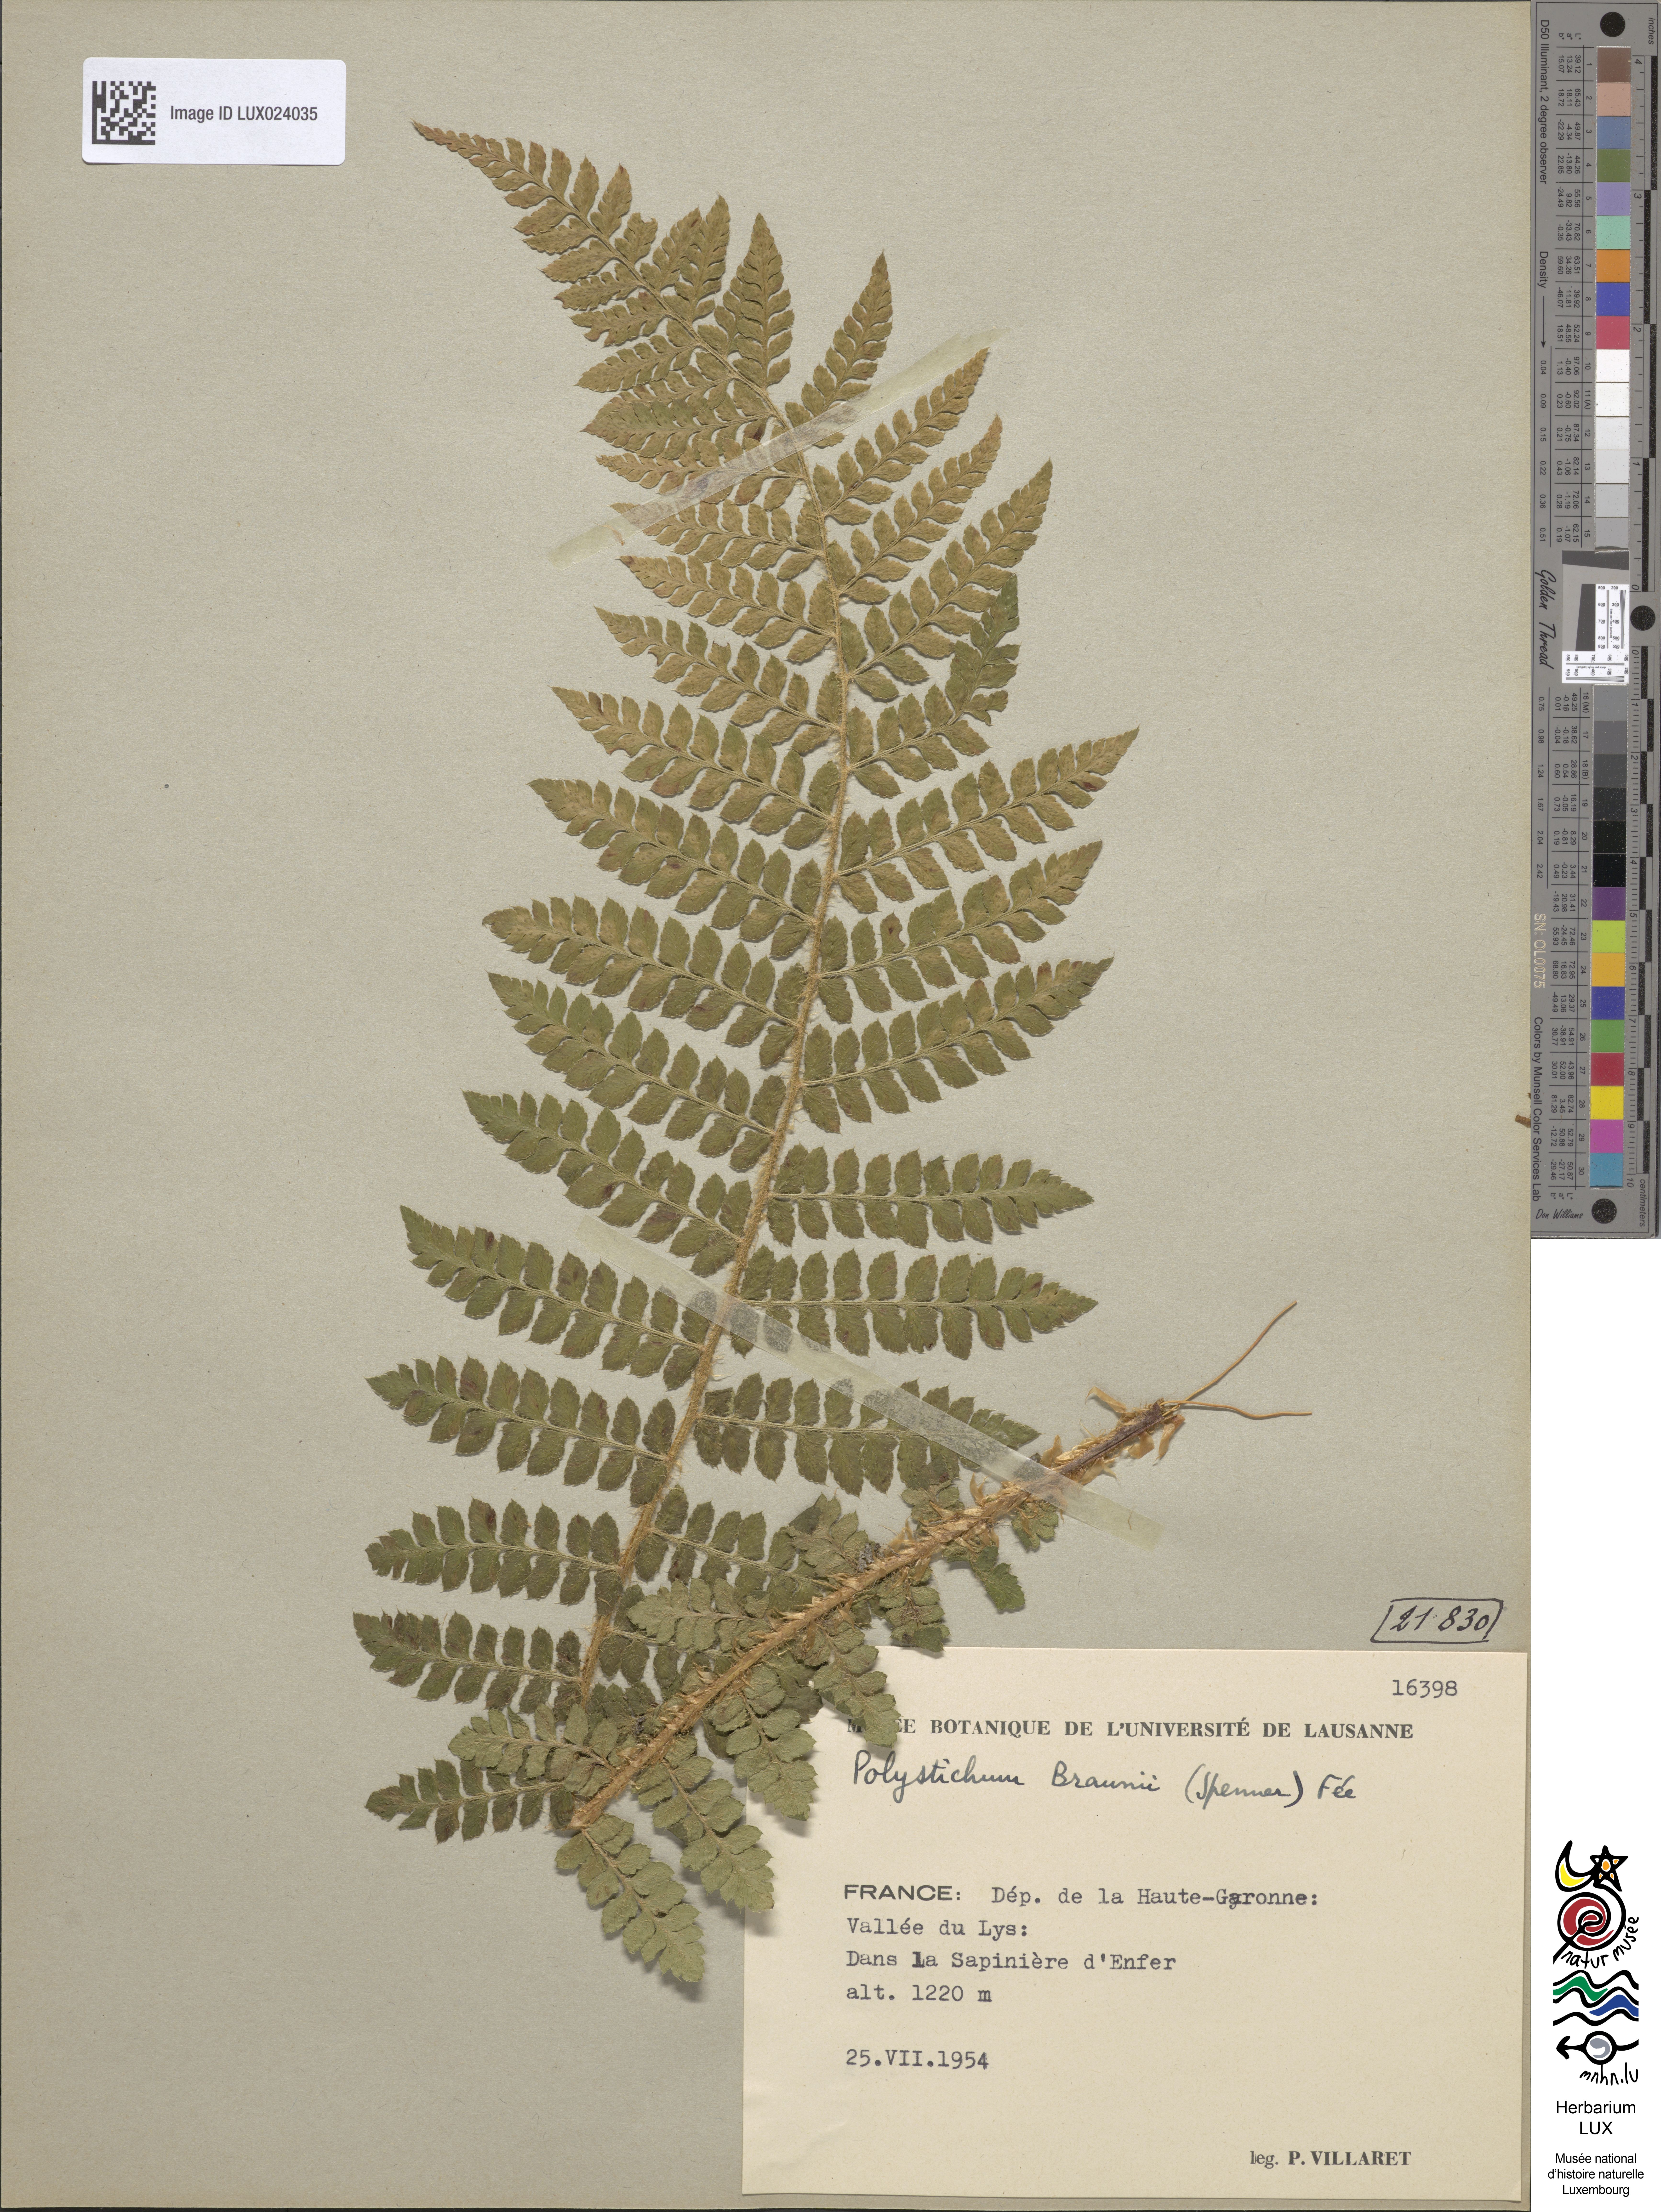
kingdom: Plantae
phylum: Tracheophyta
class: Polypodiopsida
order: Polypodiales
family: Dryopteridaceae
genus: Polystichum
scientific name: Polystichum braunii
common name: Braun's holly fern
